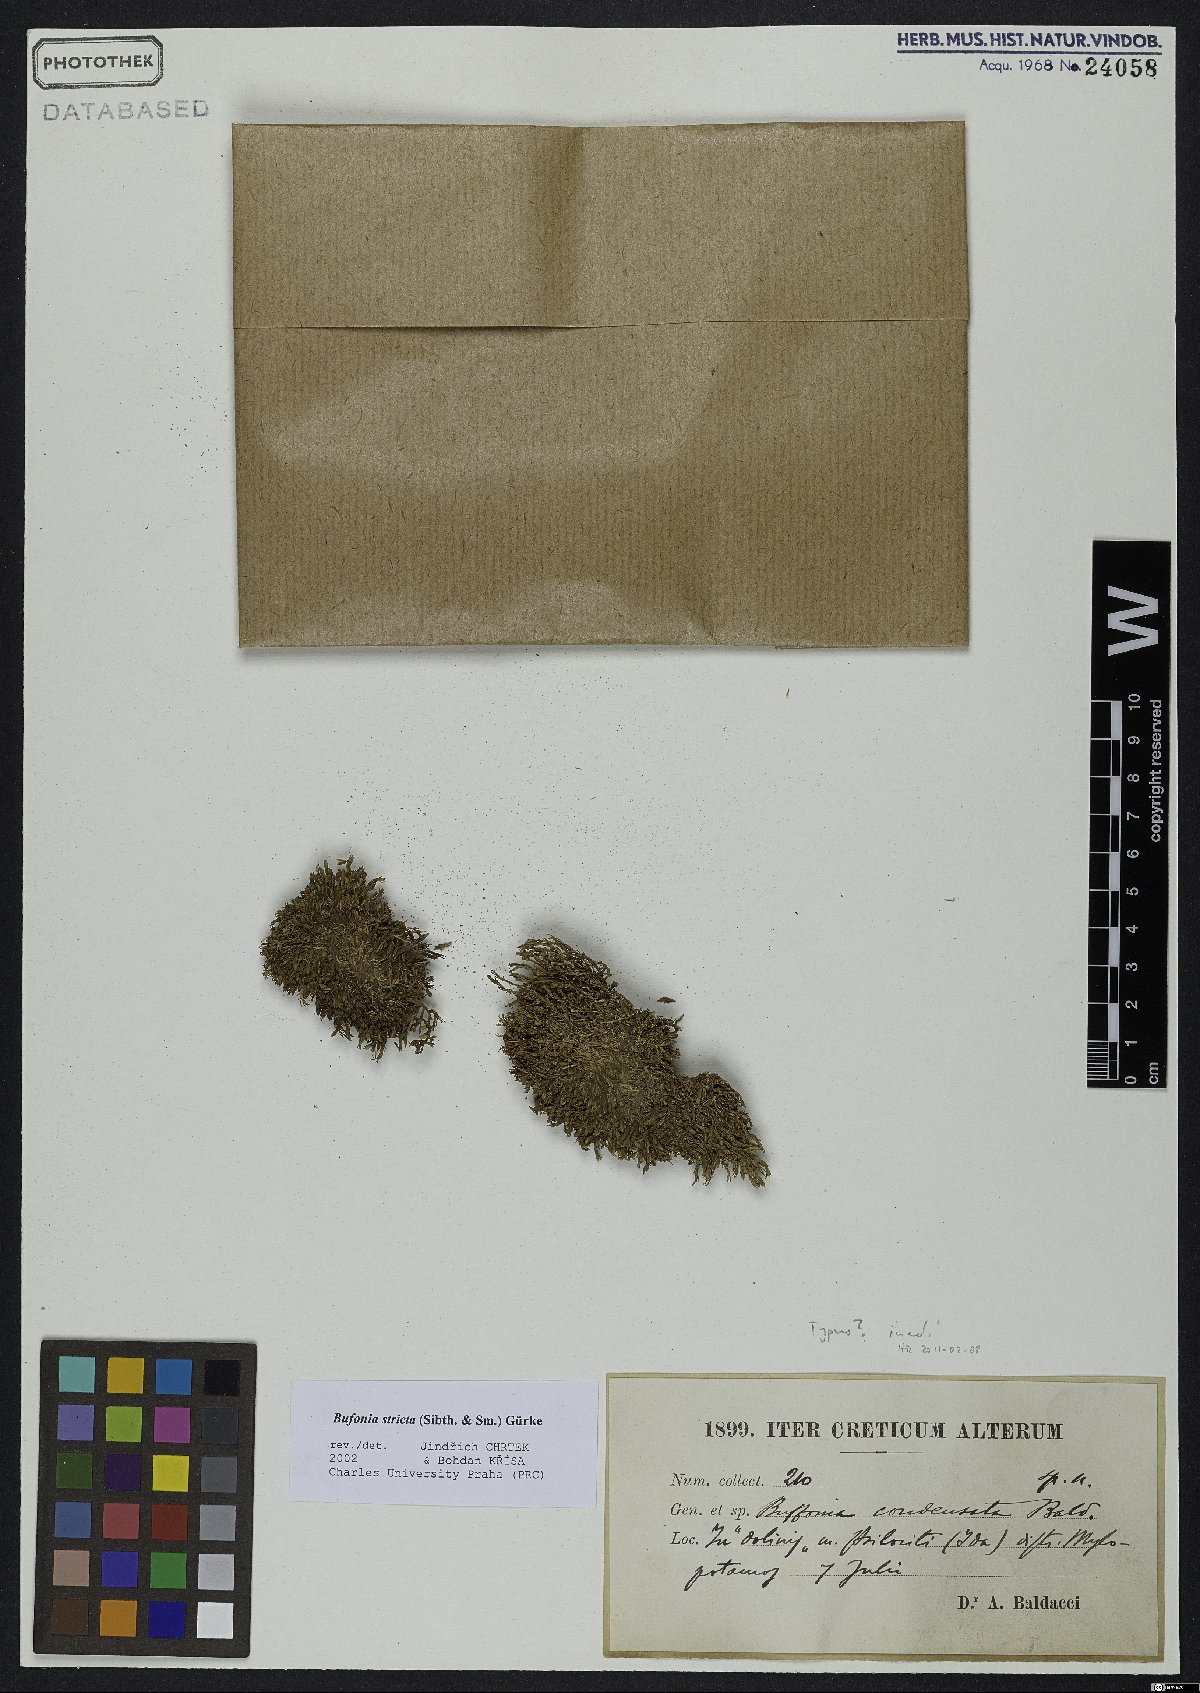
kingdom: Plantae
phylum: Tracheophyta
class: Magnoliopsida
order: Caryophyllales
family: Caryophyllaceae
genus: Bufonia
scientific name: Bufonia stricta
